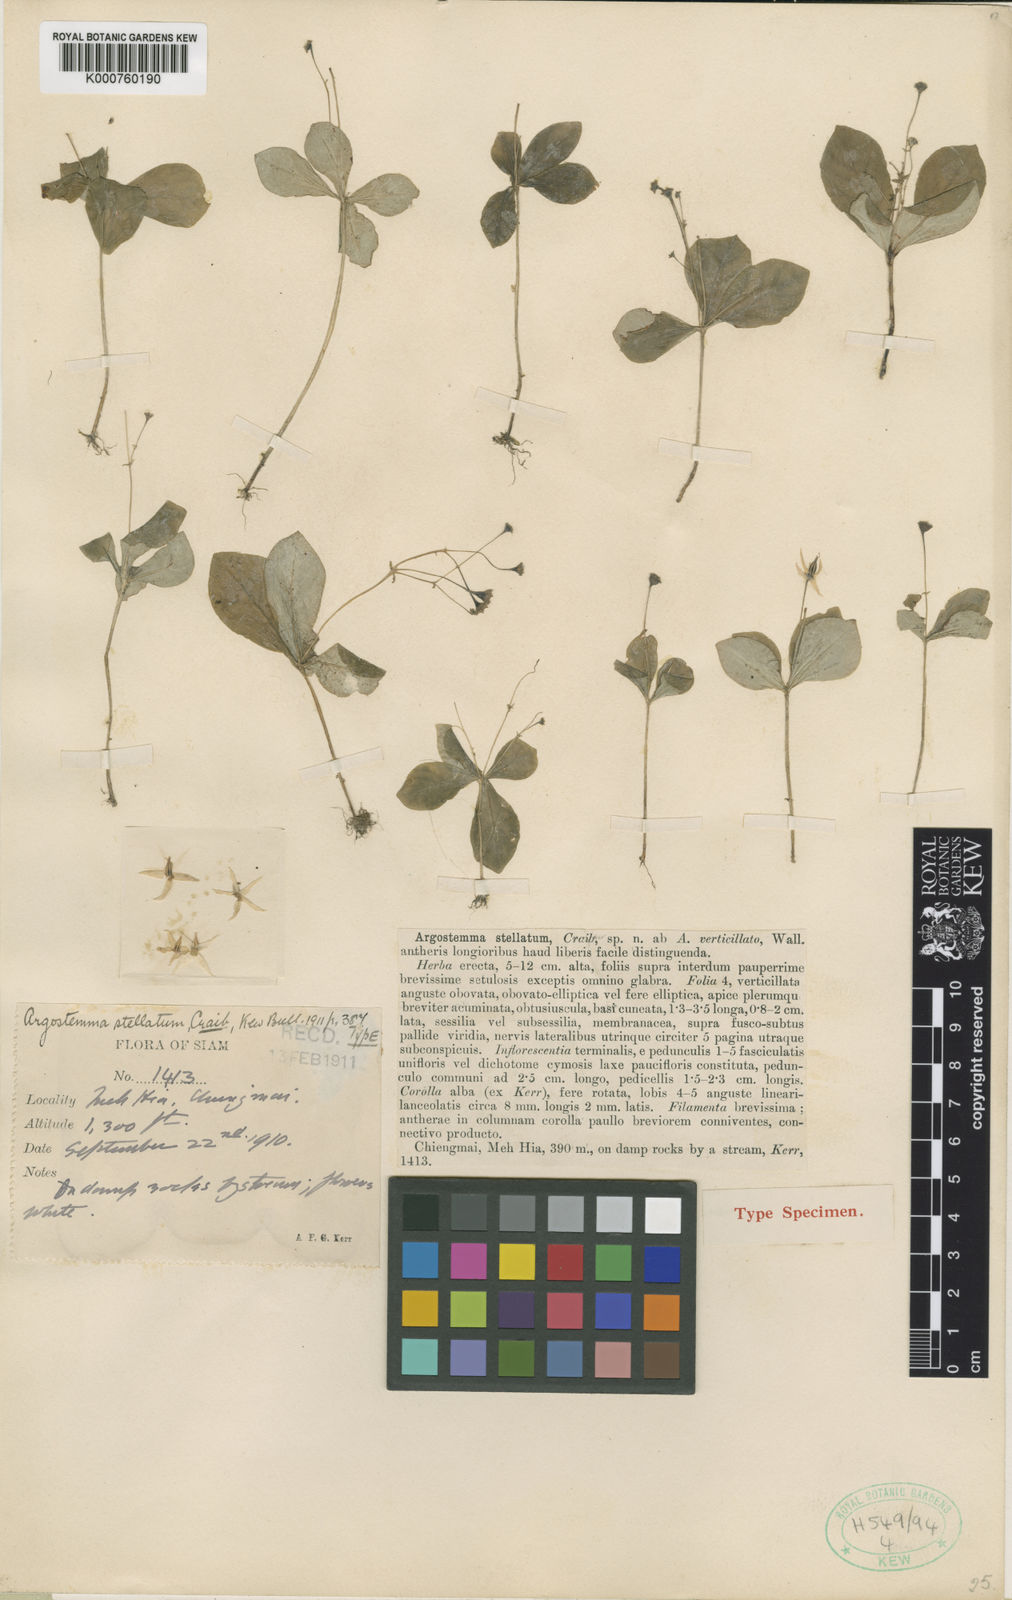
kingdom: Plantae
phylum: Tracheophyta
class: Magnoliopsida
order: Gentianales
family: Rubiaceae
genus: Argostemma
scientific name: Argostemma stellatum
